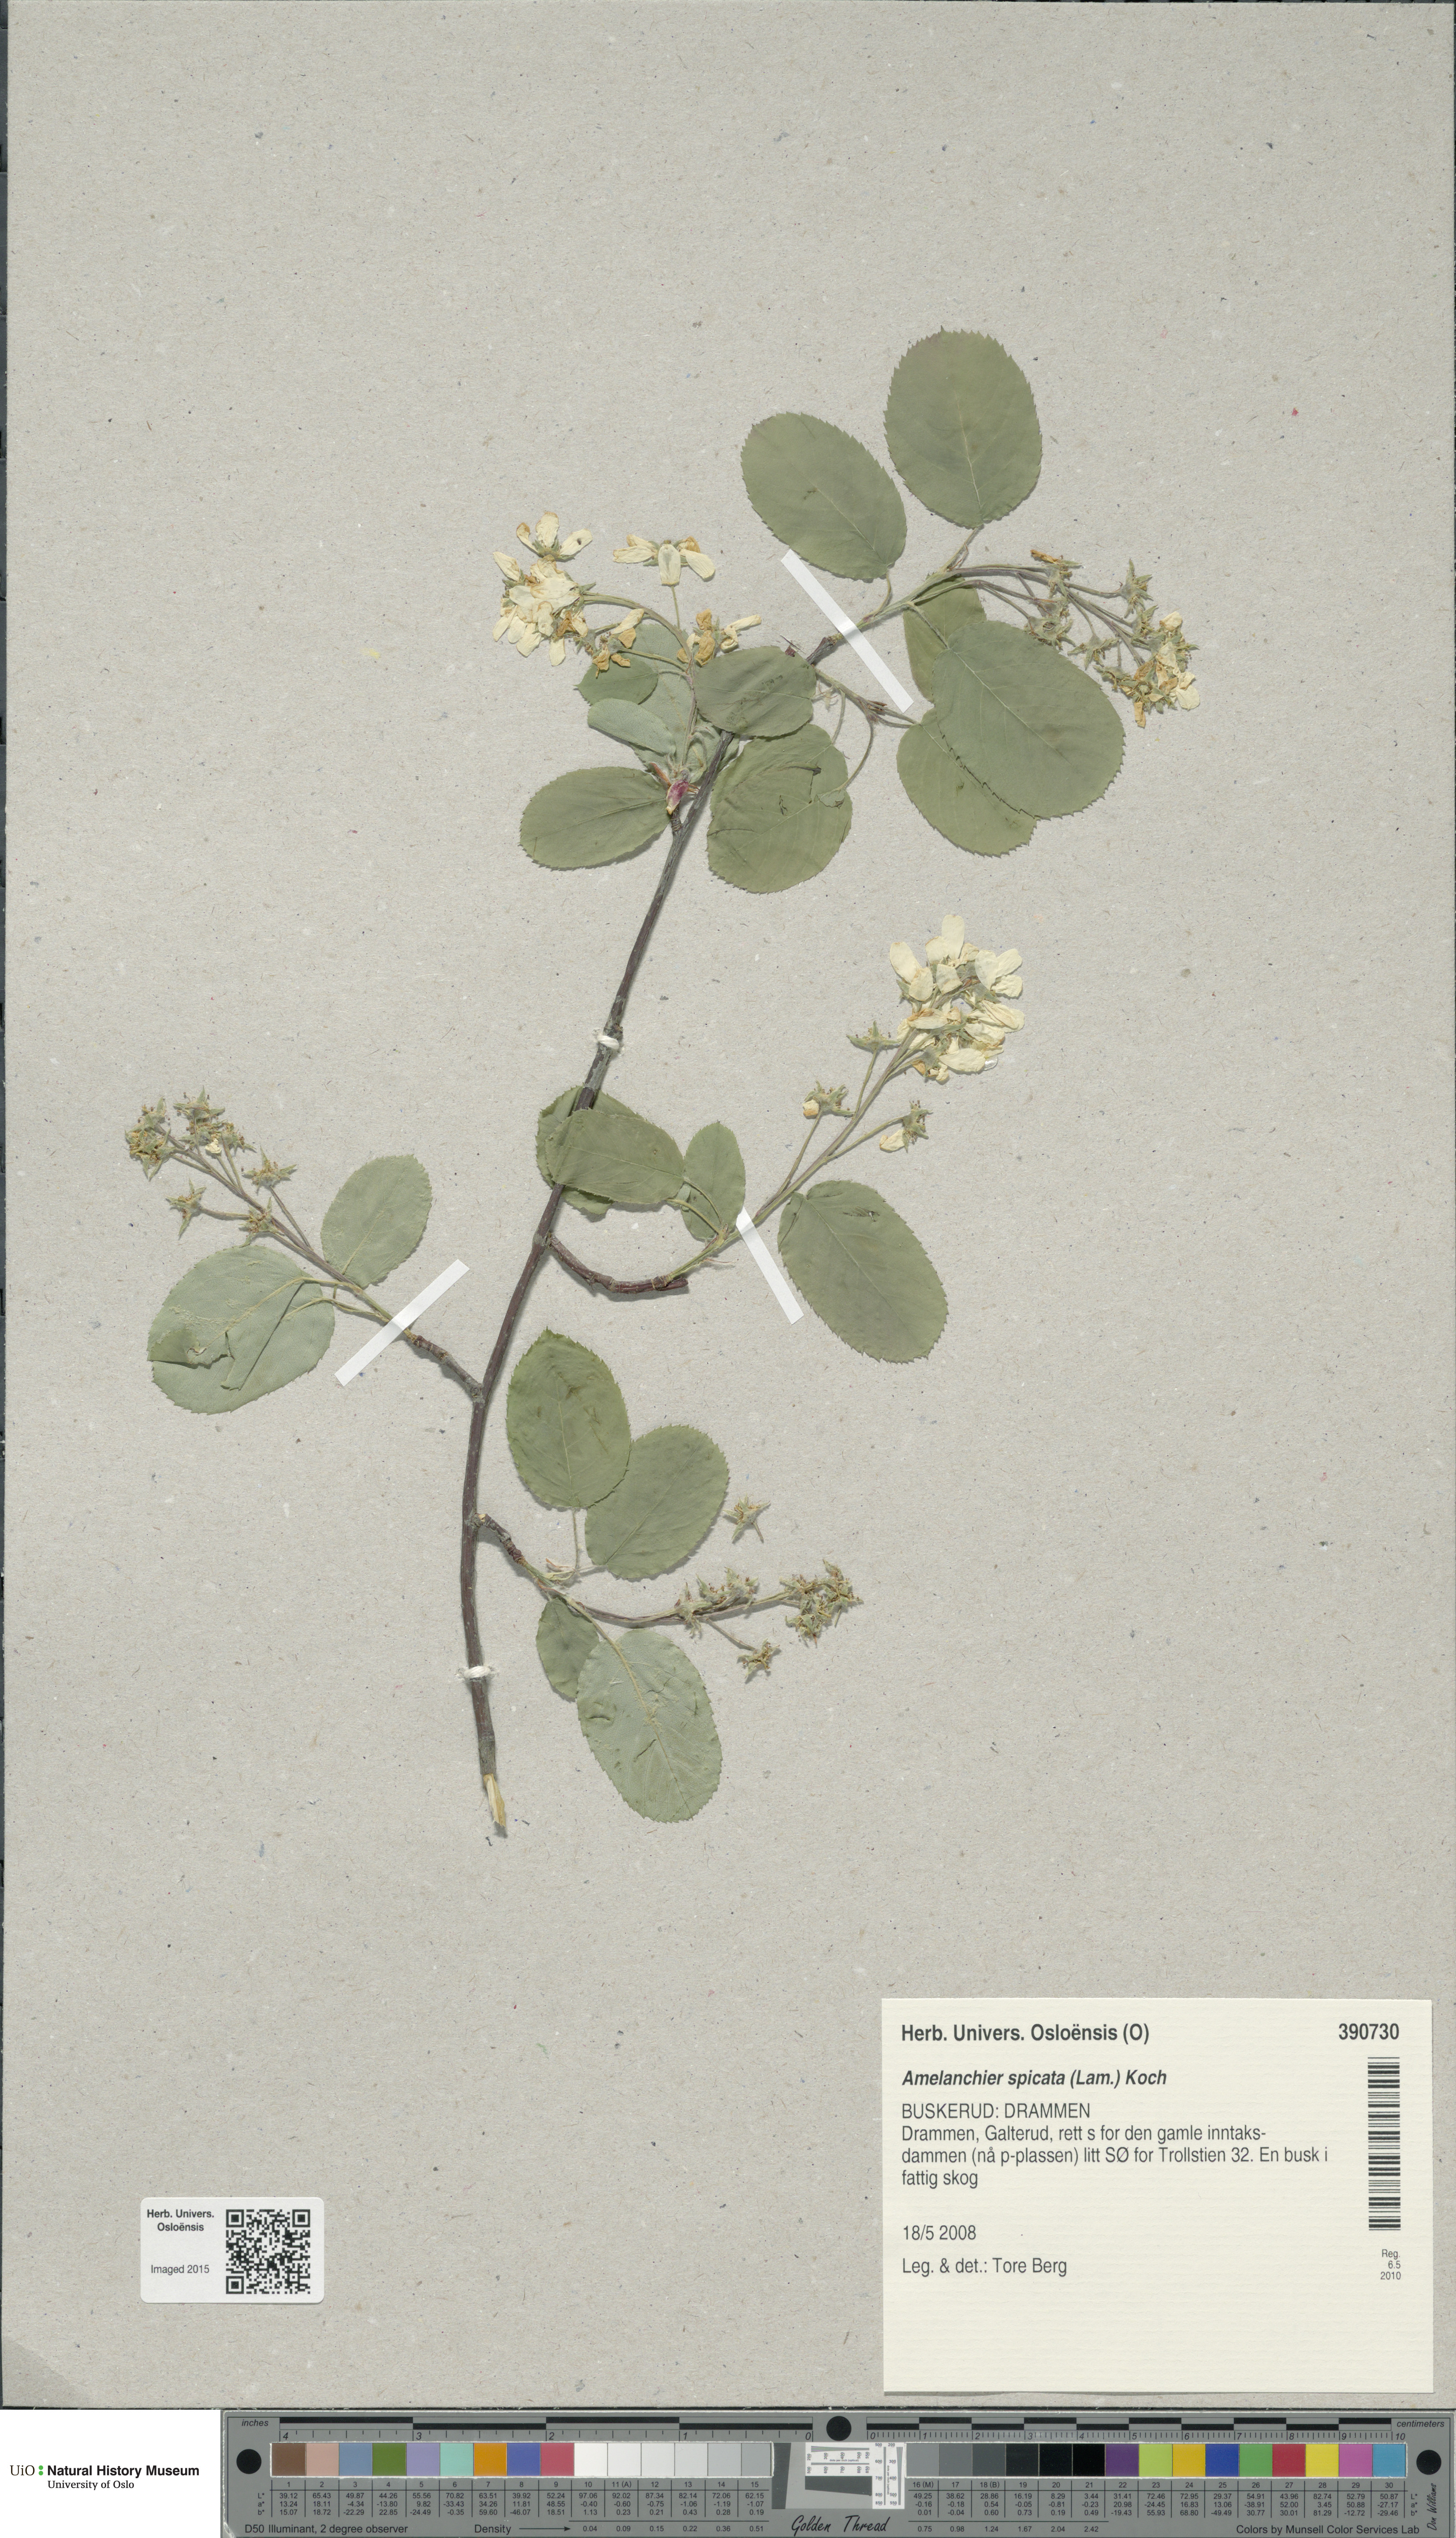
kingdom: Plantae
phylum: Tracheophyta
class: Magnoliopsida
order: Rosales
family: Rosaceae
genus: Amelanchier
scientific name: Amelanchier humilis
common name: Low juneberry
